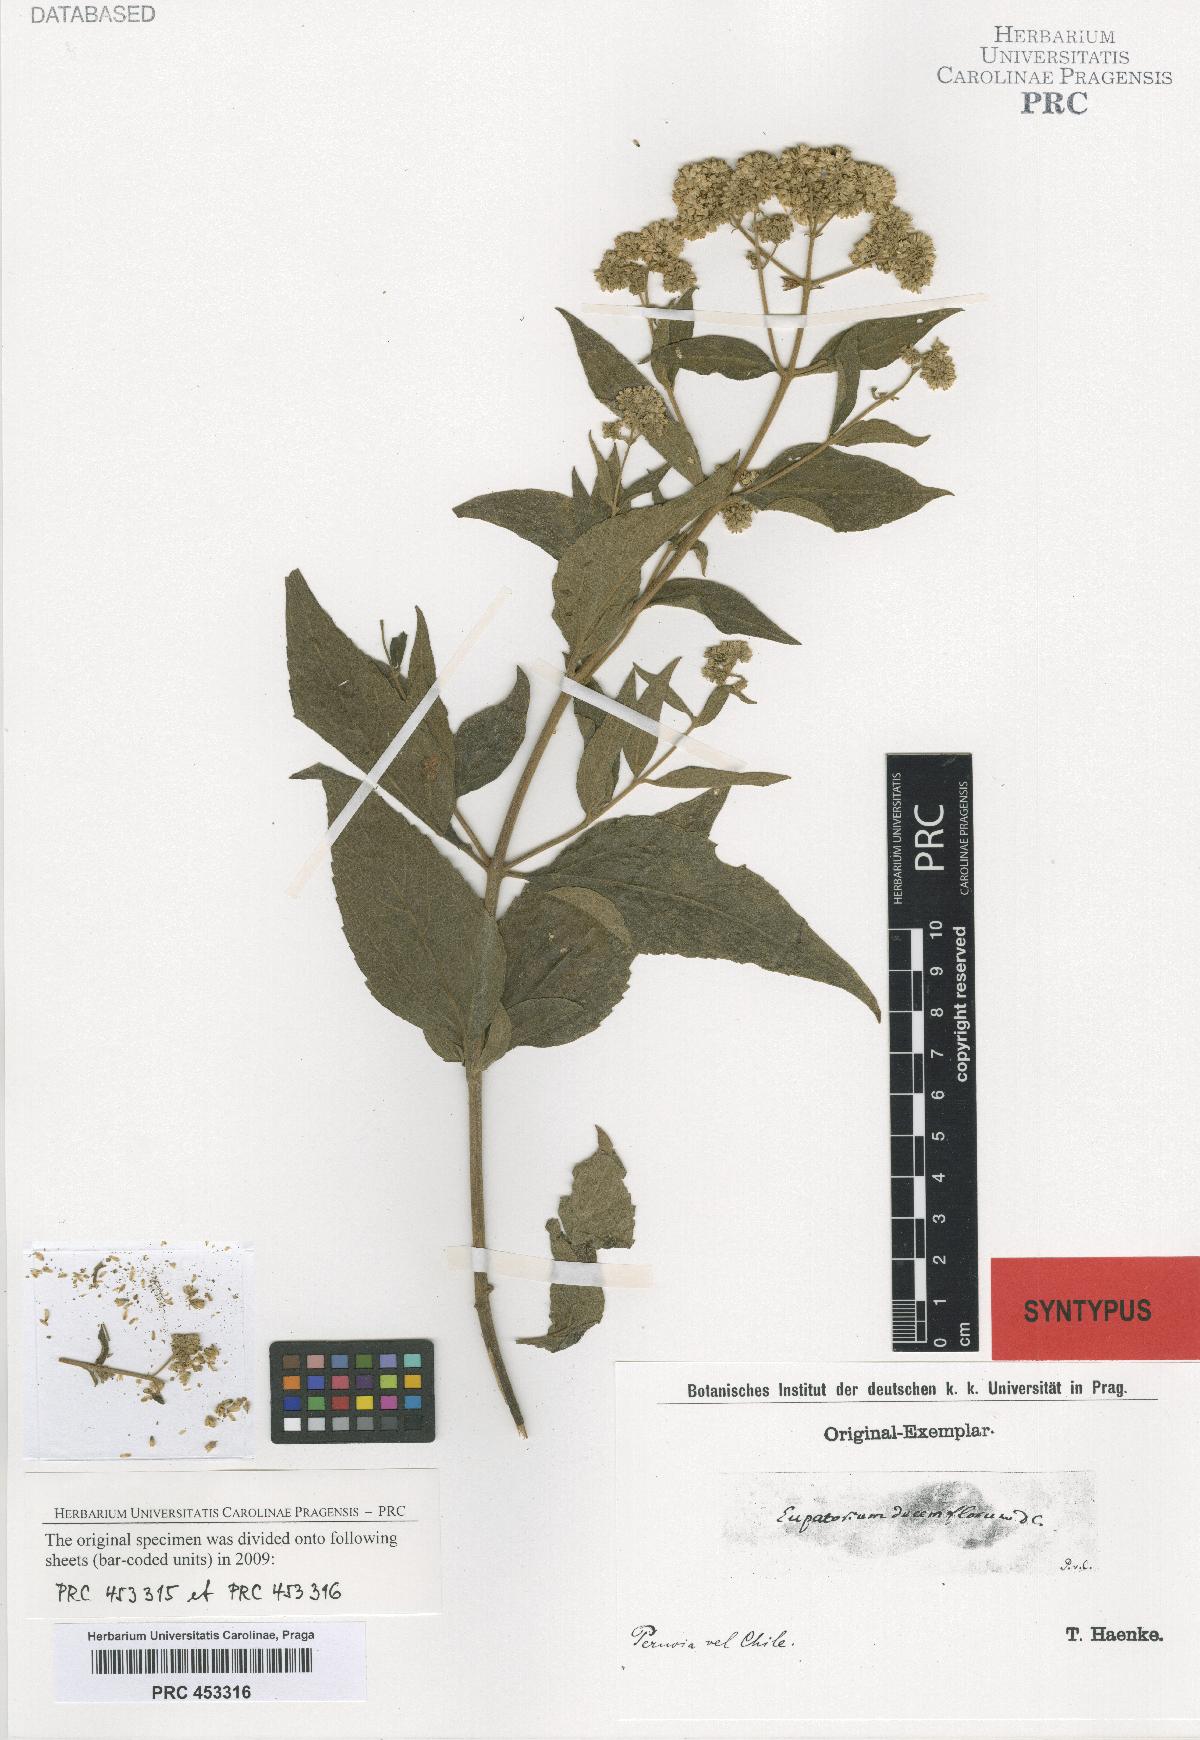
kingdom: Plantae
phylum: Tracheophyta
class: Magnoliopsida
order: Asterales
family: Asteraceae
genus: Austroeupatorium
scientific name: Austroeupatorium decemflorum
